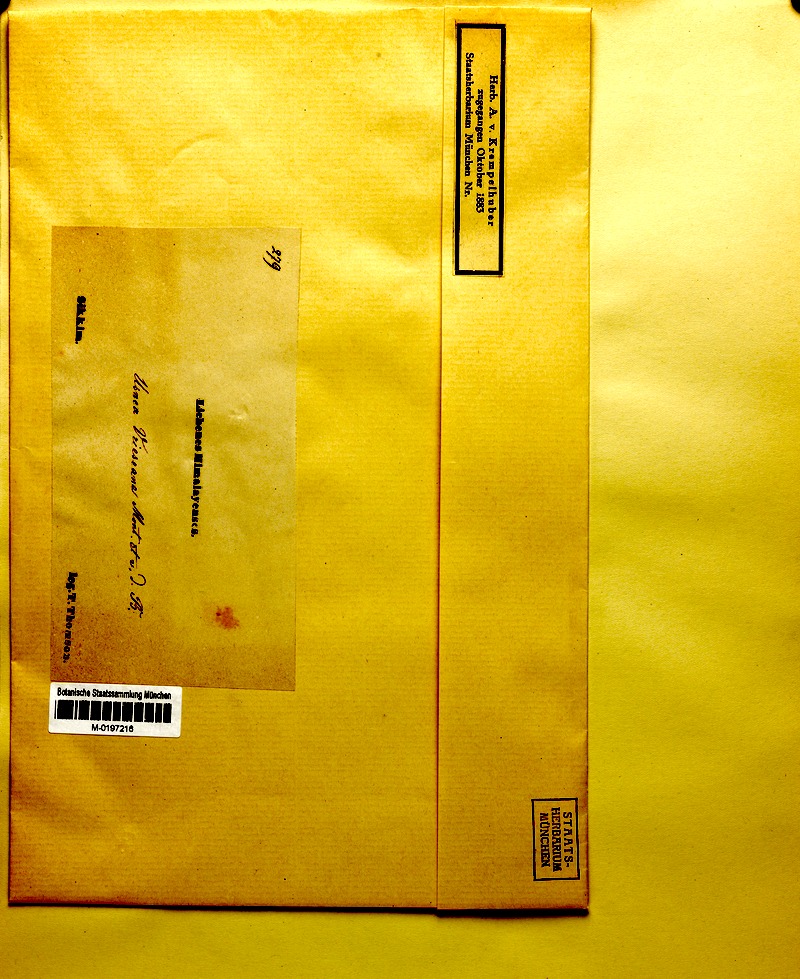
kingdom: Fungi
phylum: Ascomycota
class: Lecanoromycetes
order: Lecanorales
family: Parmeliaceae
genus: Usnea
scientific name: Usnea vrieseana
